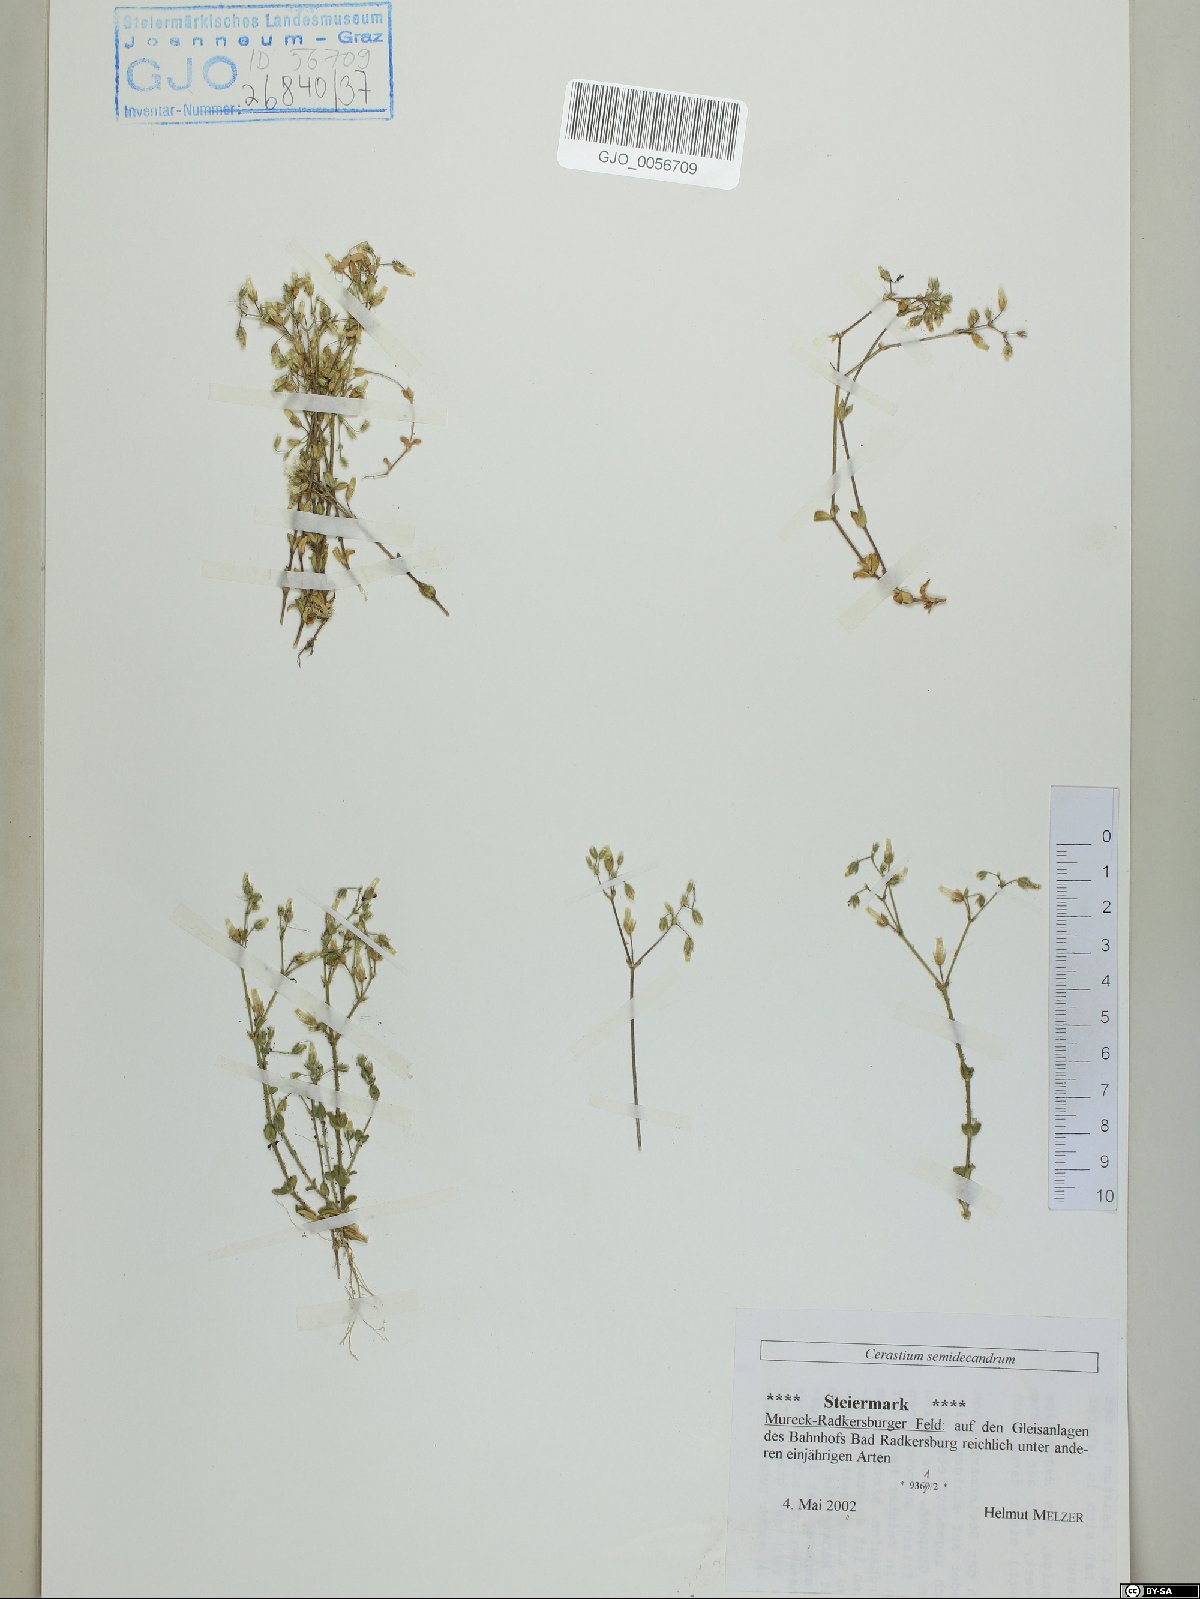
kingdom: Plantae
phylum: Tracheophyta
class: Magnoliopsida
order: Caryophyllales
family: Caryophyllaceae
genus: Cerastium
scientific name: Cerastium semidecandrum
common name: Little mouse-ear
